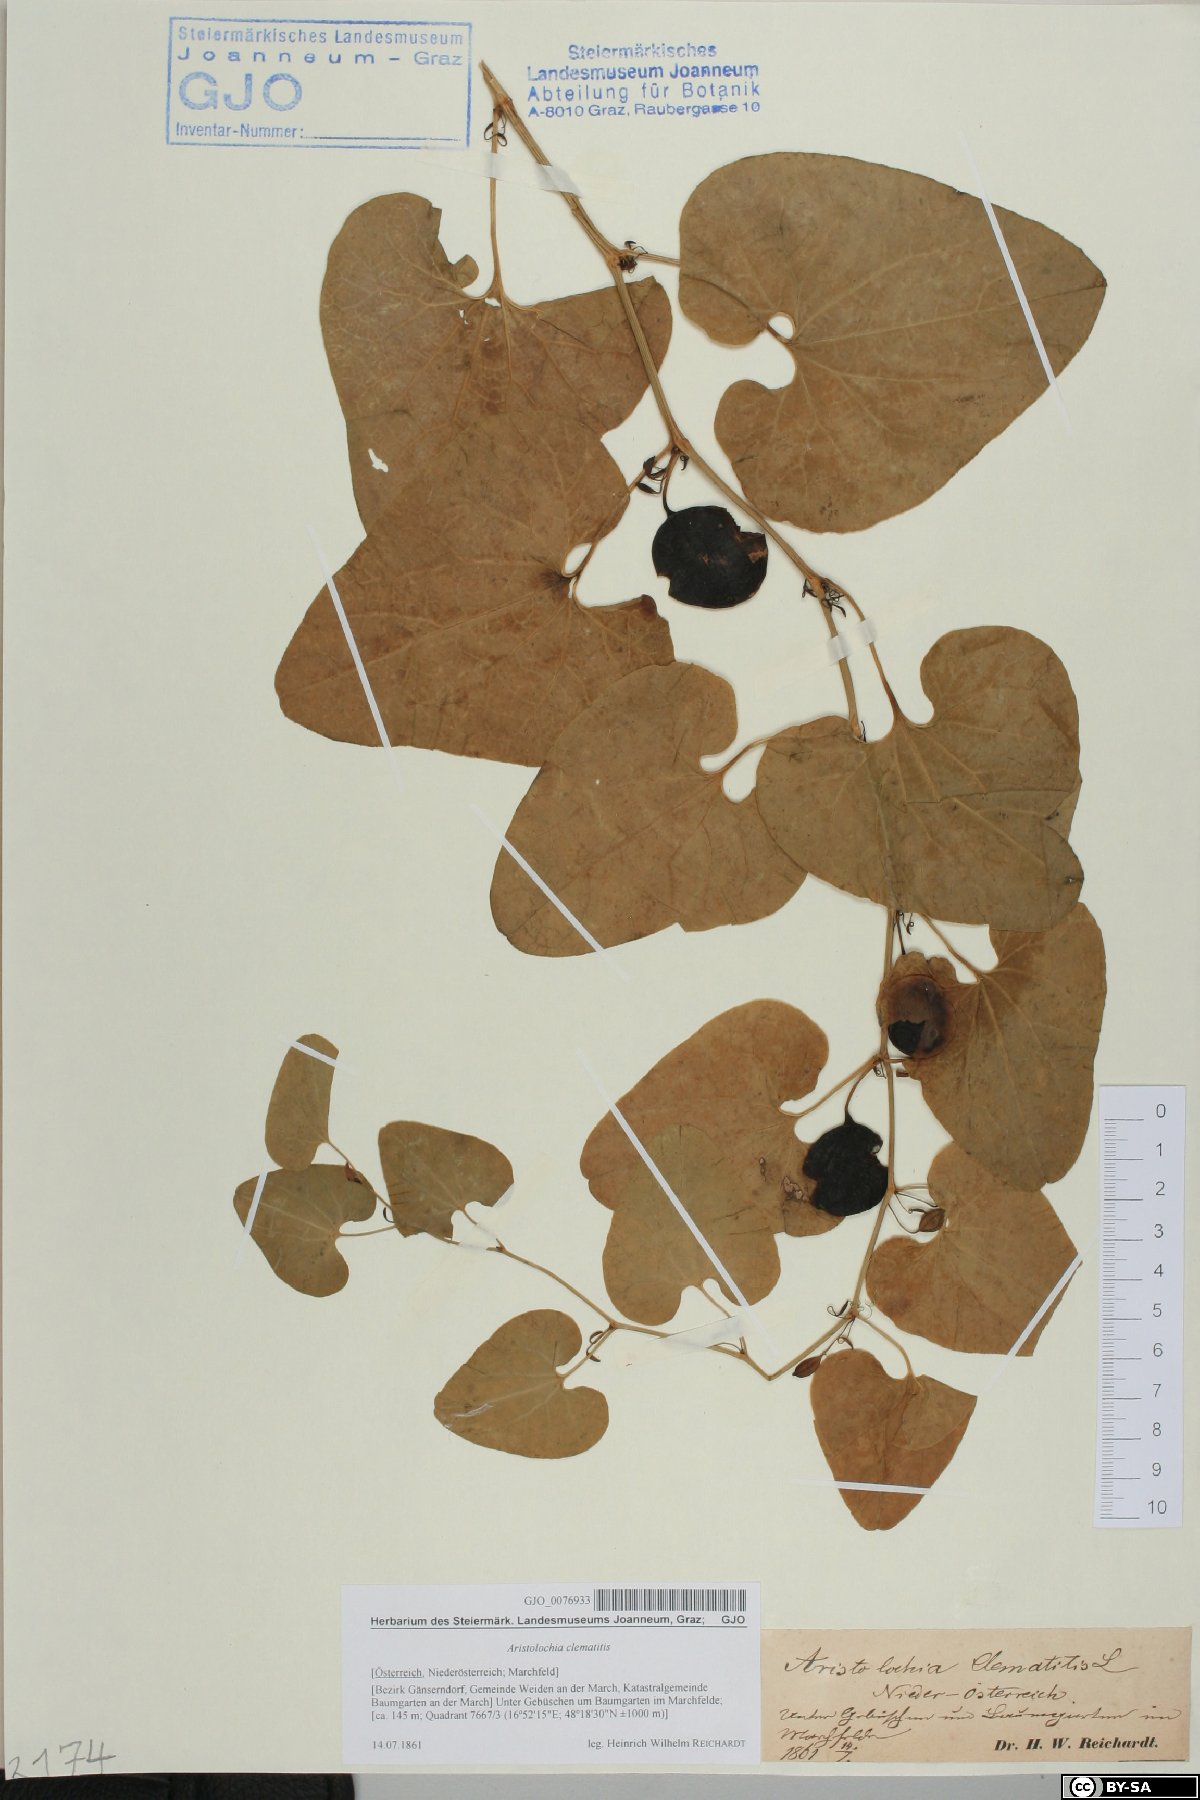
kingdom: Plantae
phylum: Tracheophyta
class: Magnoliopsida
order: Piperales
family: Aristolochiaceae
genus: Aristolochia
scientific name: Aristolochia clematitis
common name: Birthwort
